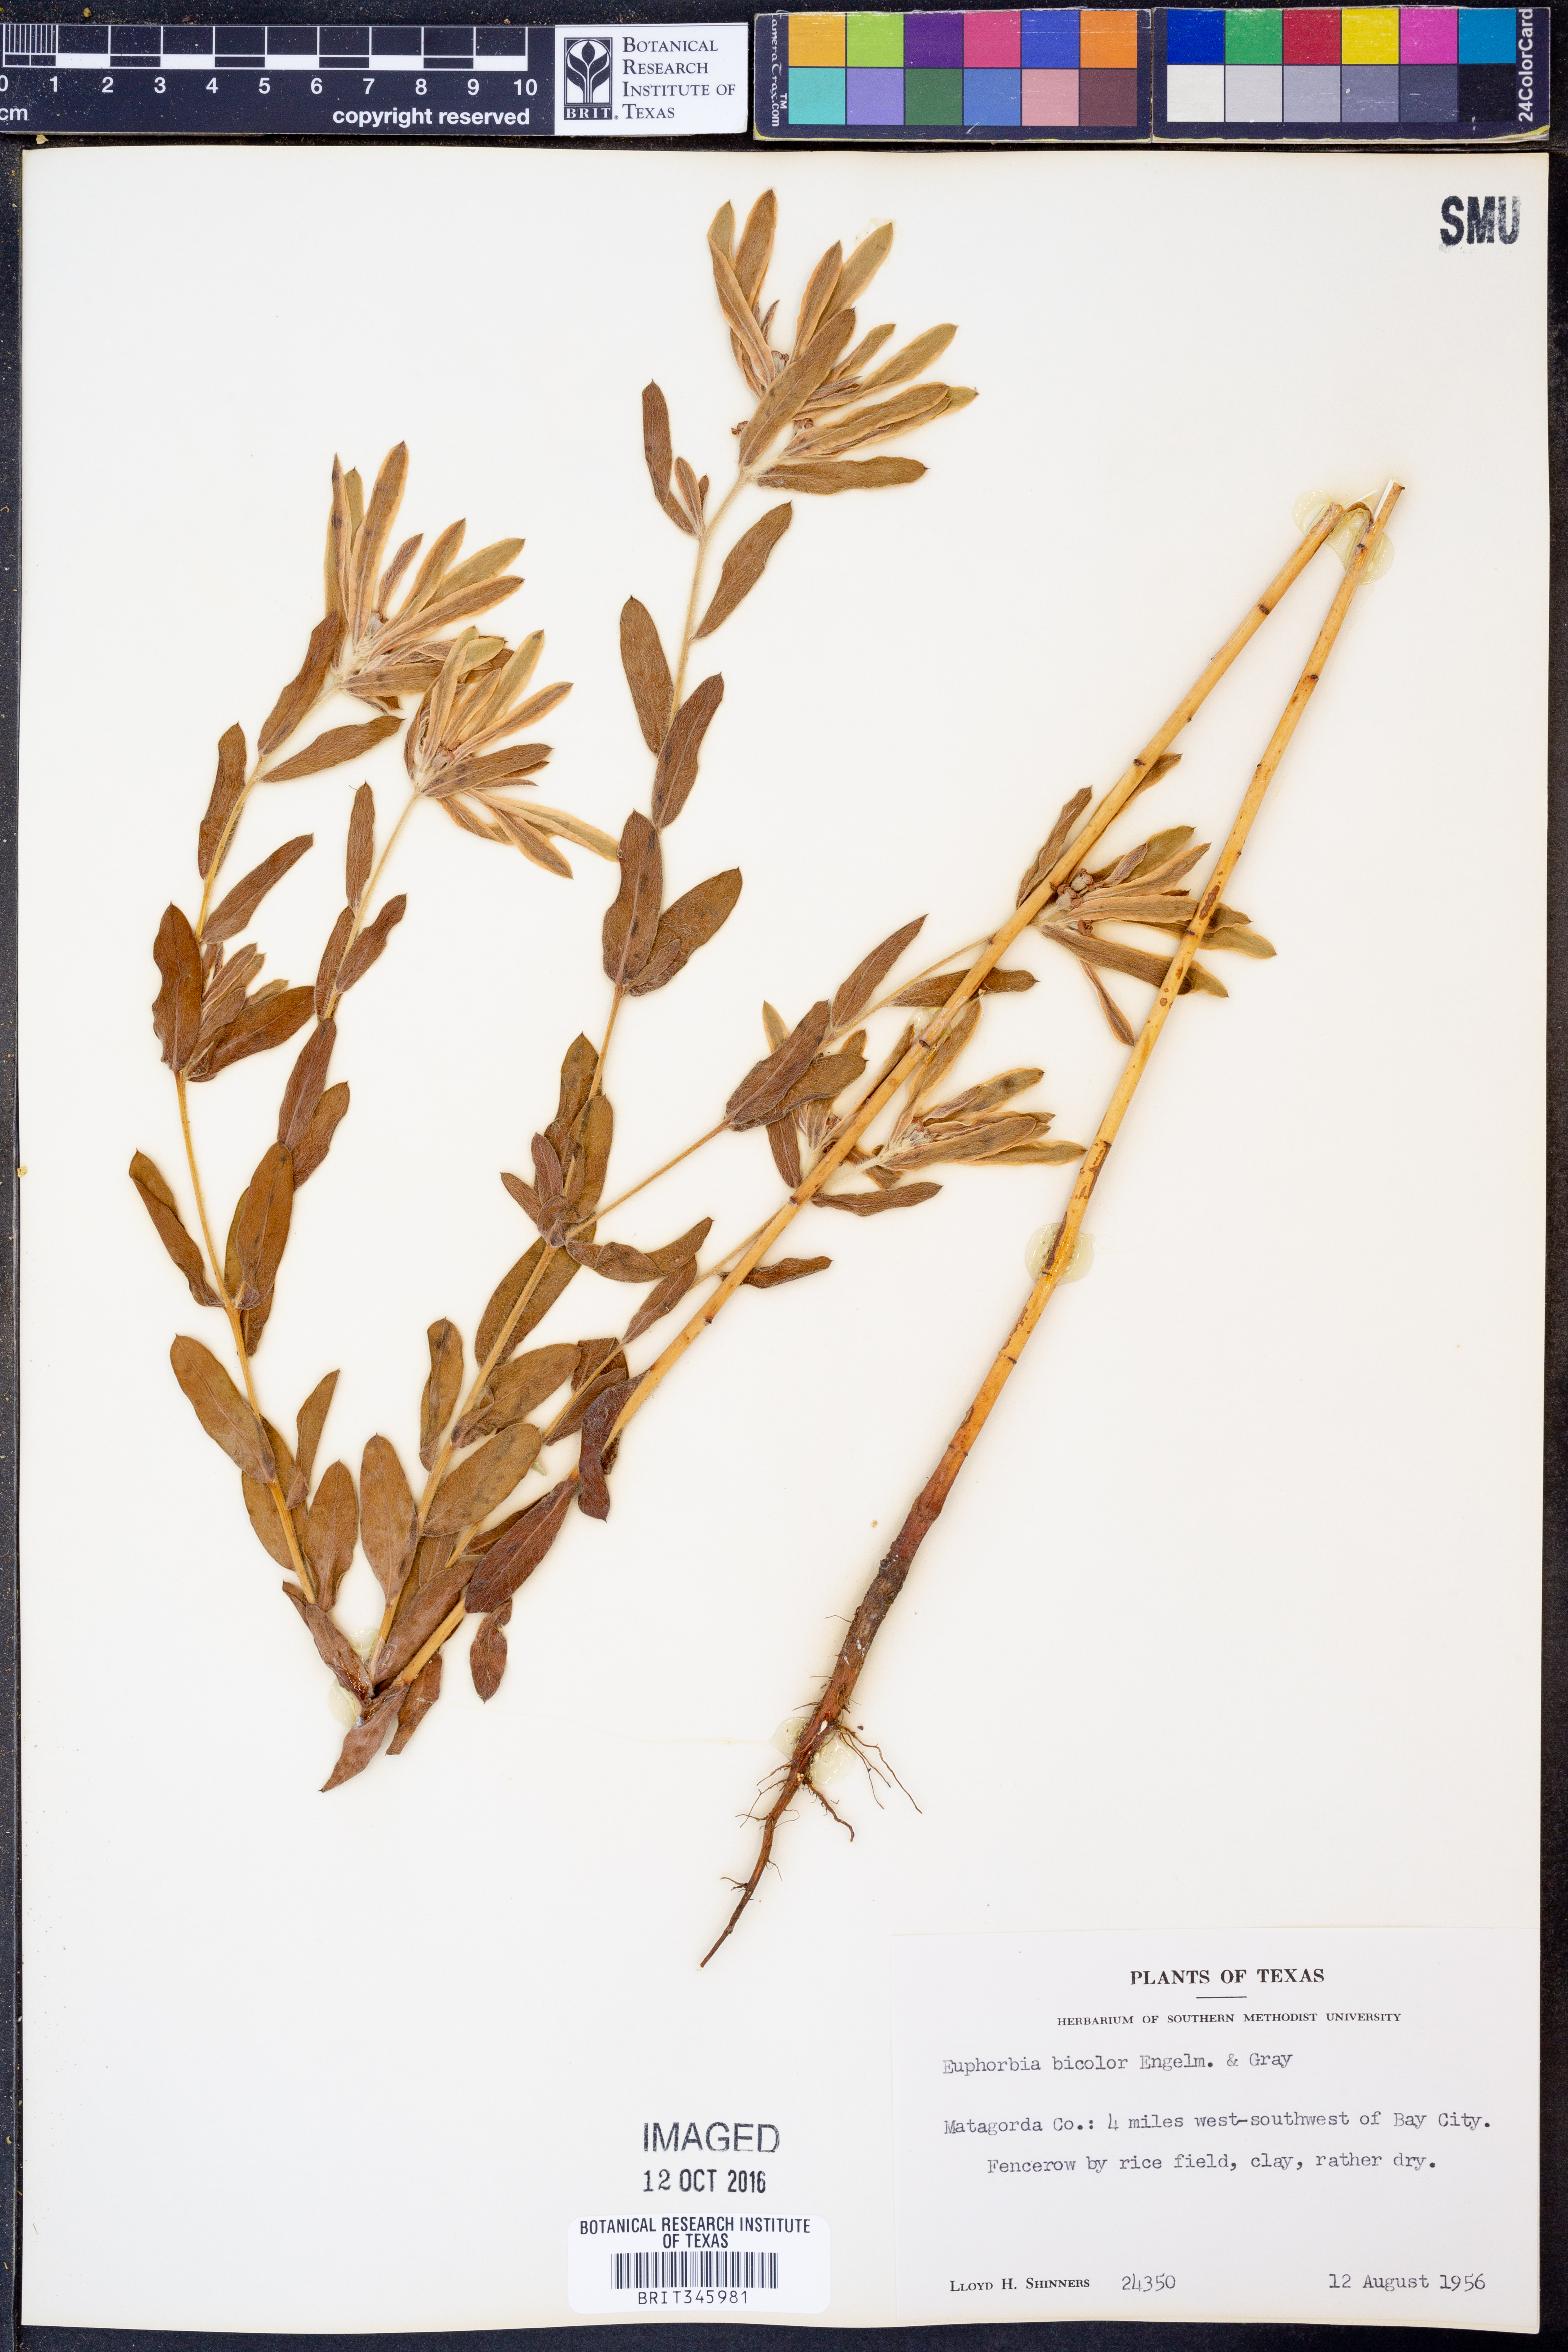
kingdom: Plantae
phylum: Tracheophyta
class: Magnoliopsida
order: Malpighiales
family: Euphorbiaceae
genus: Euphorbia
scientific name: Euphorbia bicolor
